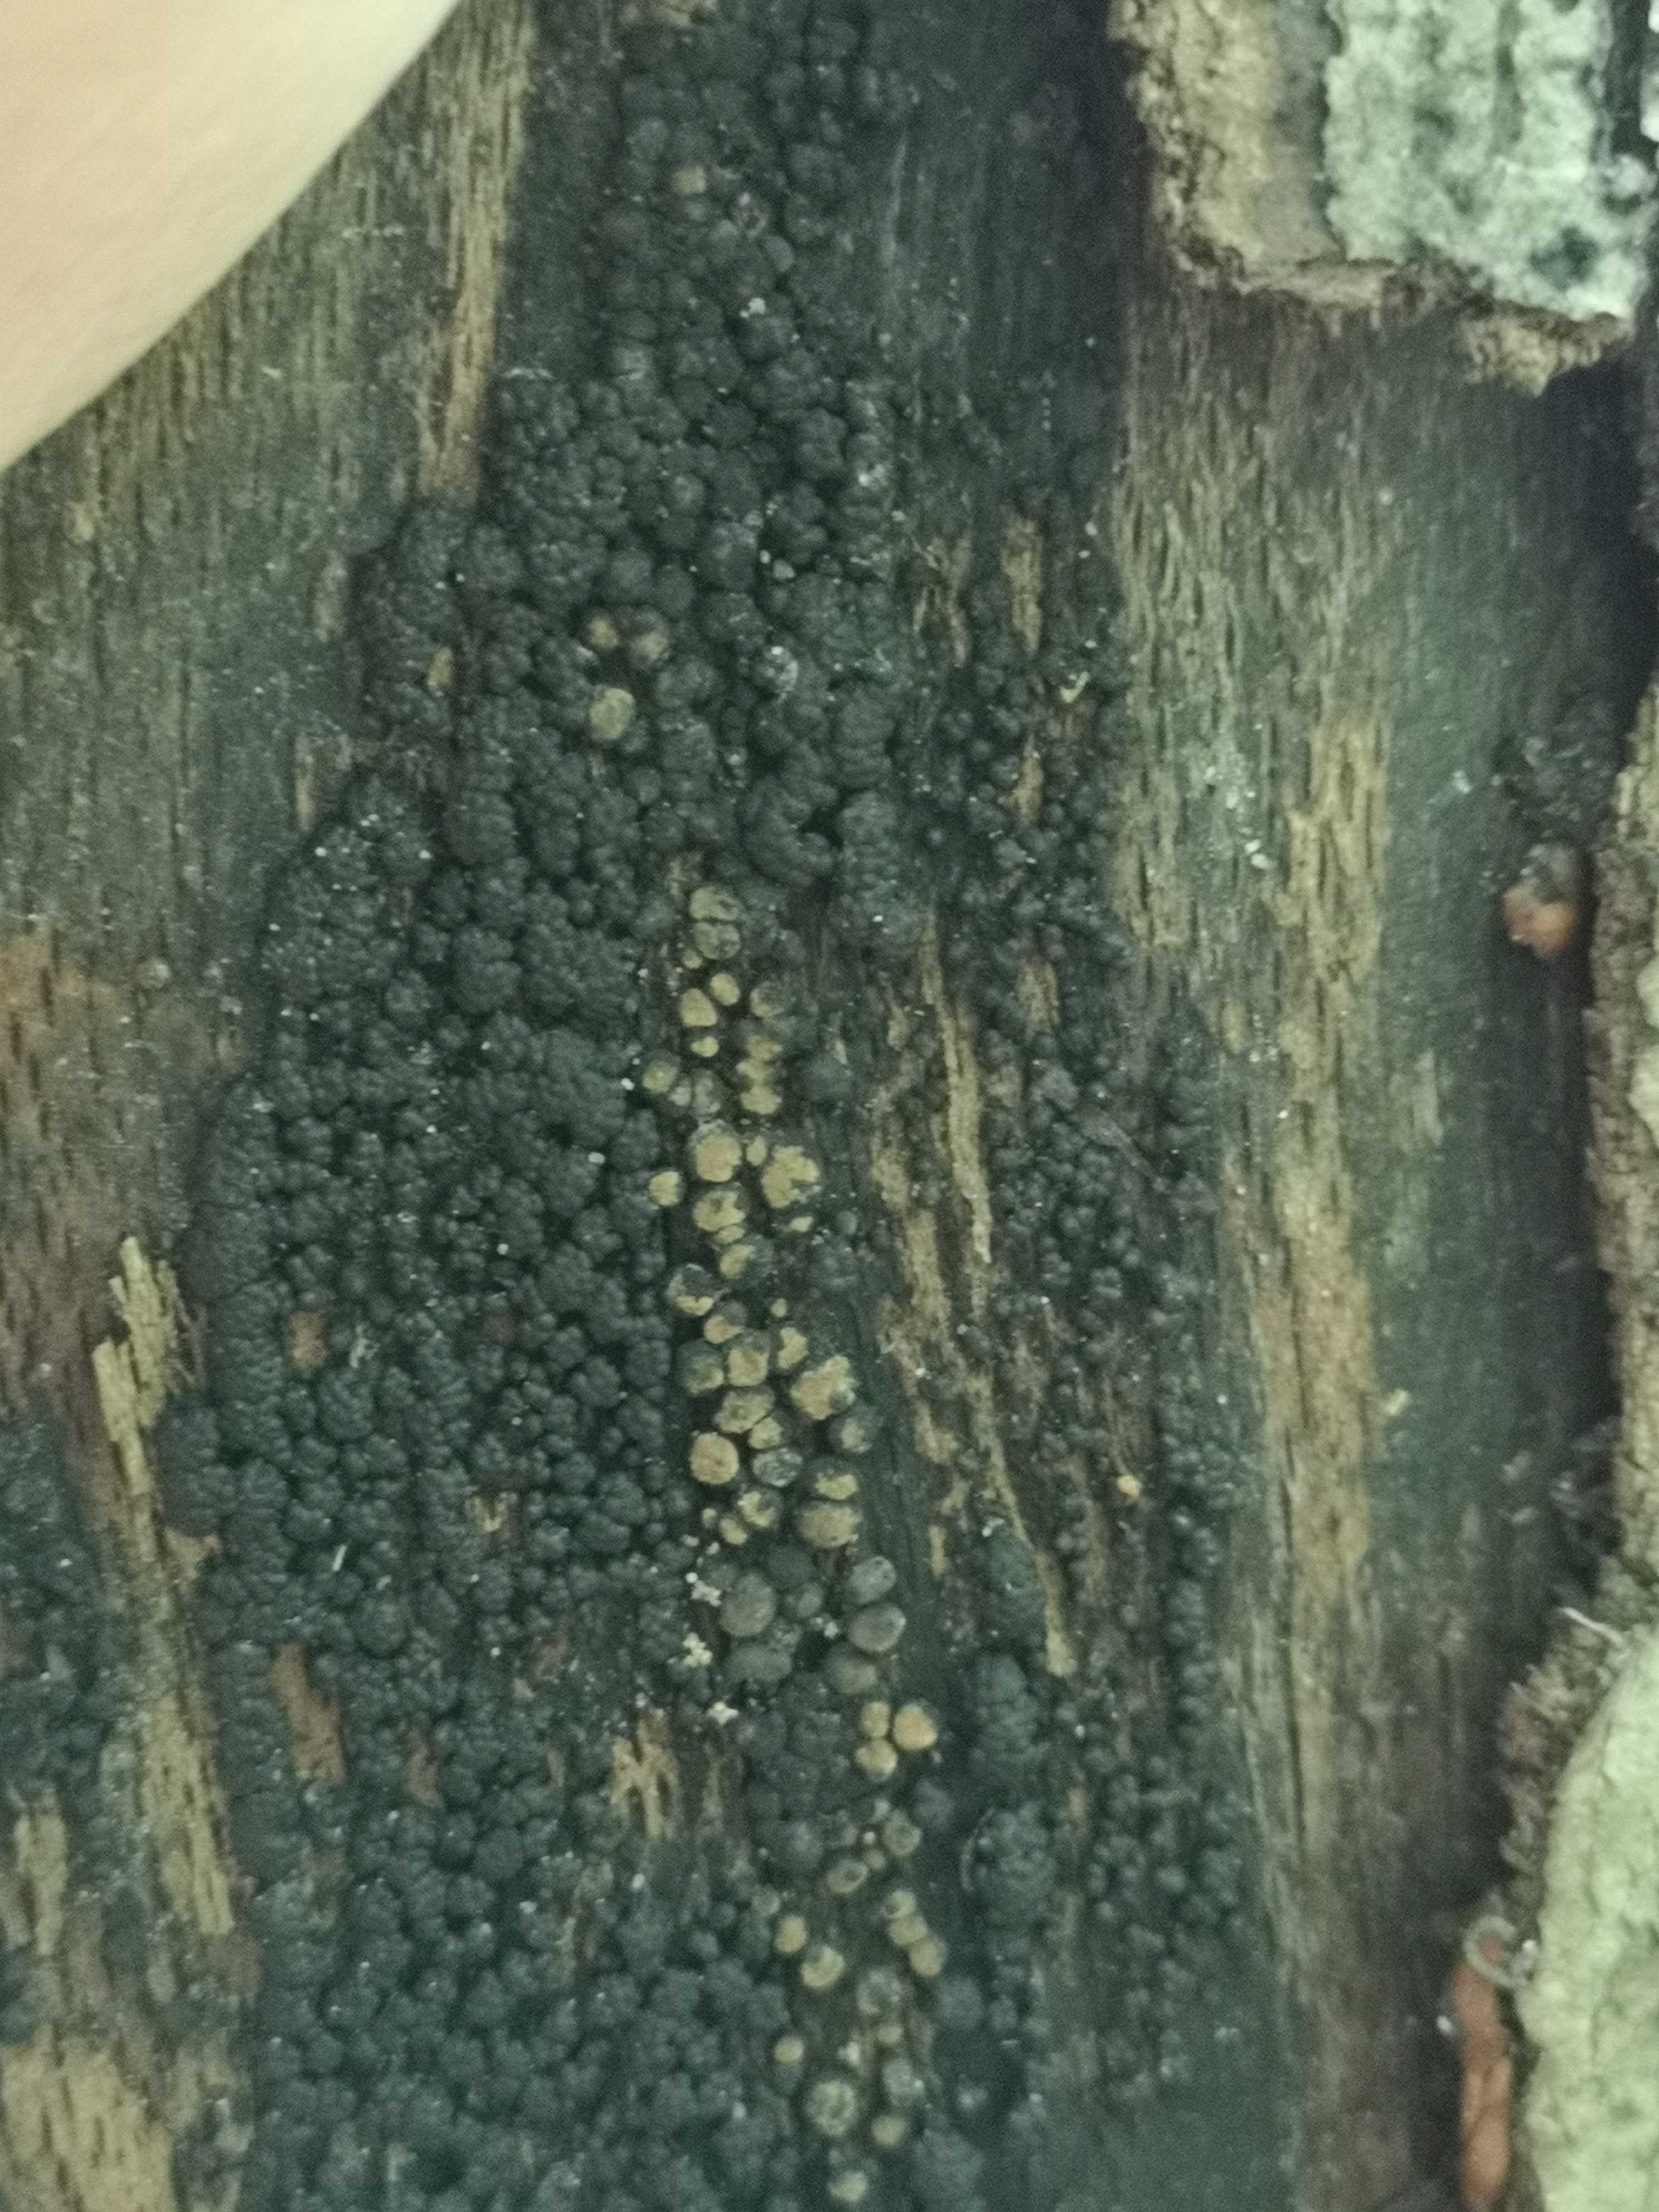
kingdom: Fungi
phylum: Ascomycota
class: Sordariomycetes
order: Xylariales
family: Hypoxylaceae
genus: Jackrogersella
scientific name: Jackrogersella cohaerens
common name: sammenflydende kulbær
